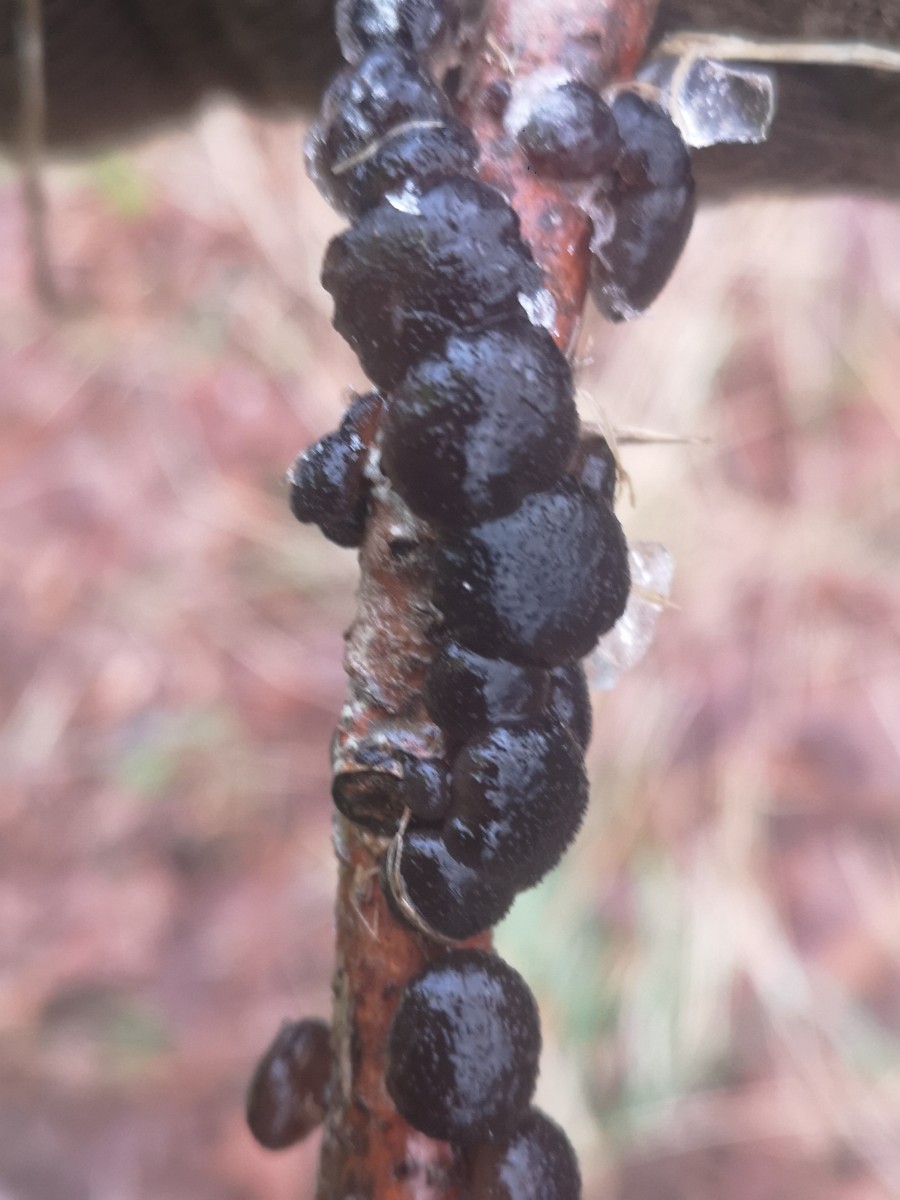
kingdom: Fungi
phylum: Basidiomycota
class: Agaricomycetes
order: Auriculariales
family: Auriculariaceae
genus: Exidia
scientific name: Exidia glandulosa
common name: ege-bævretop
